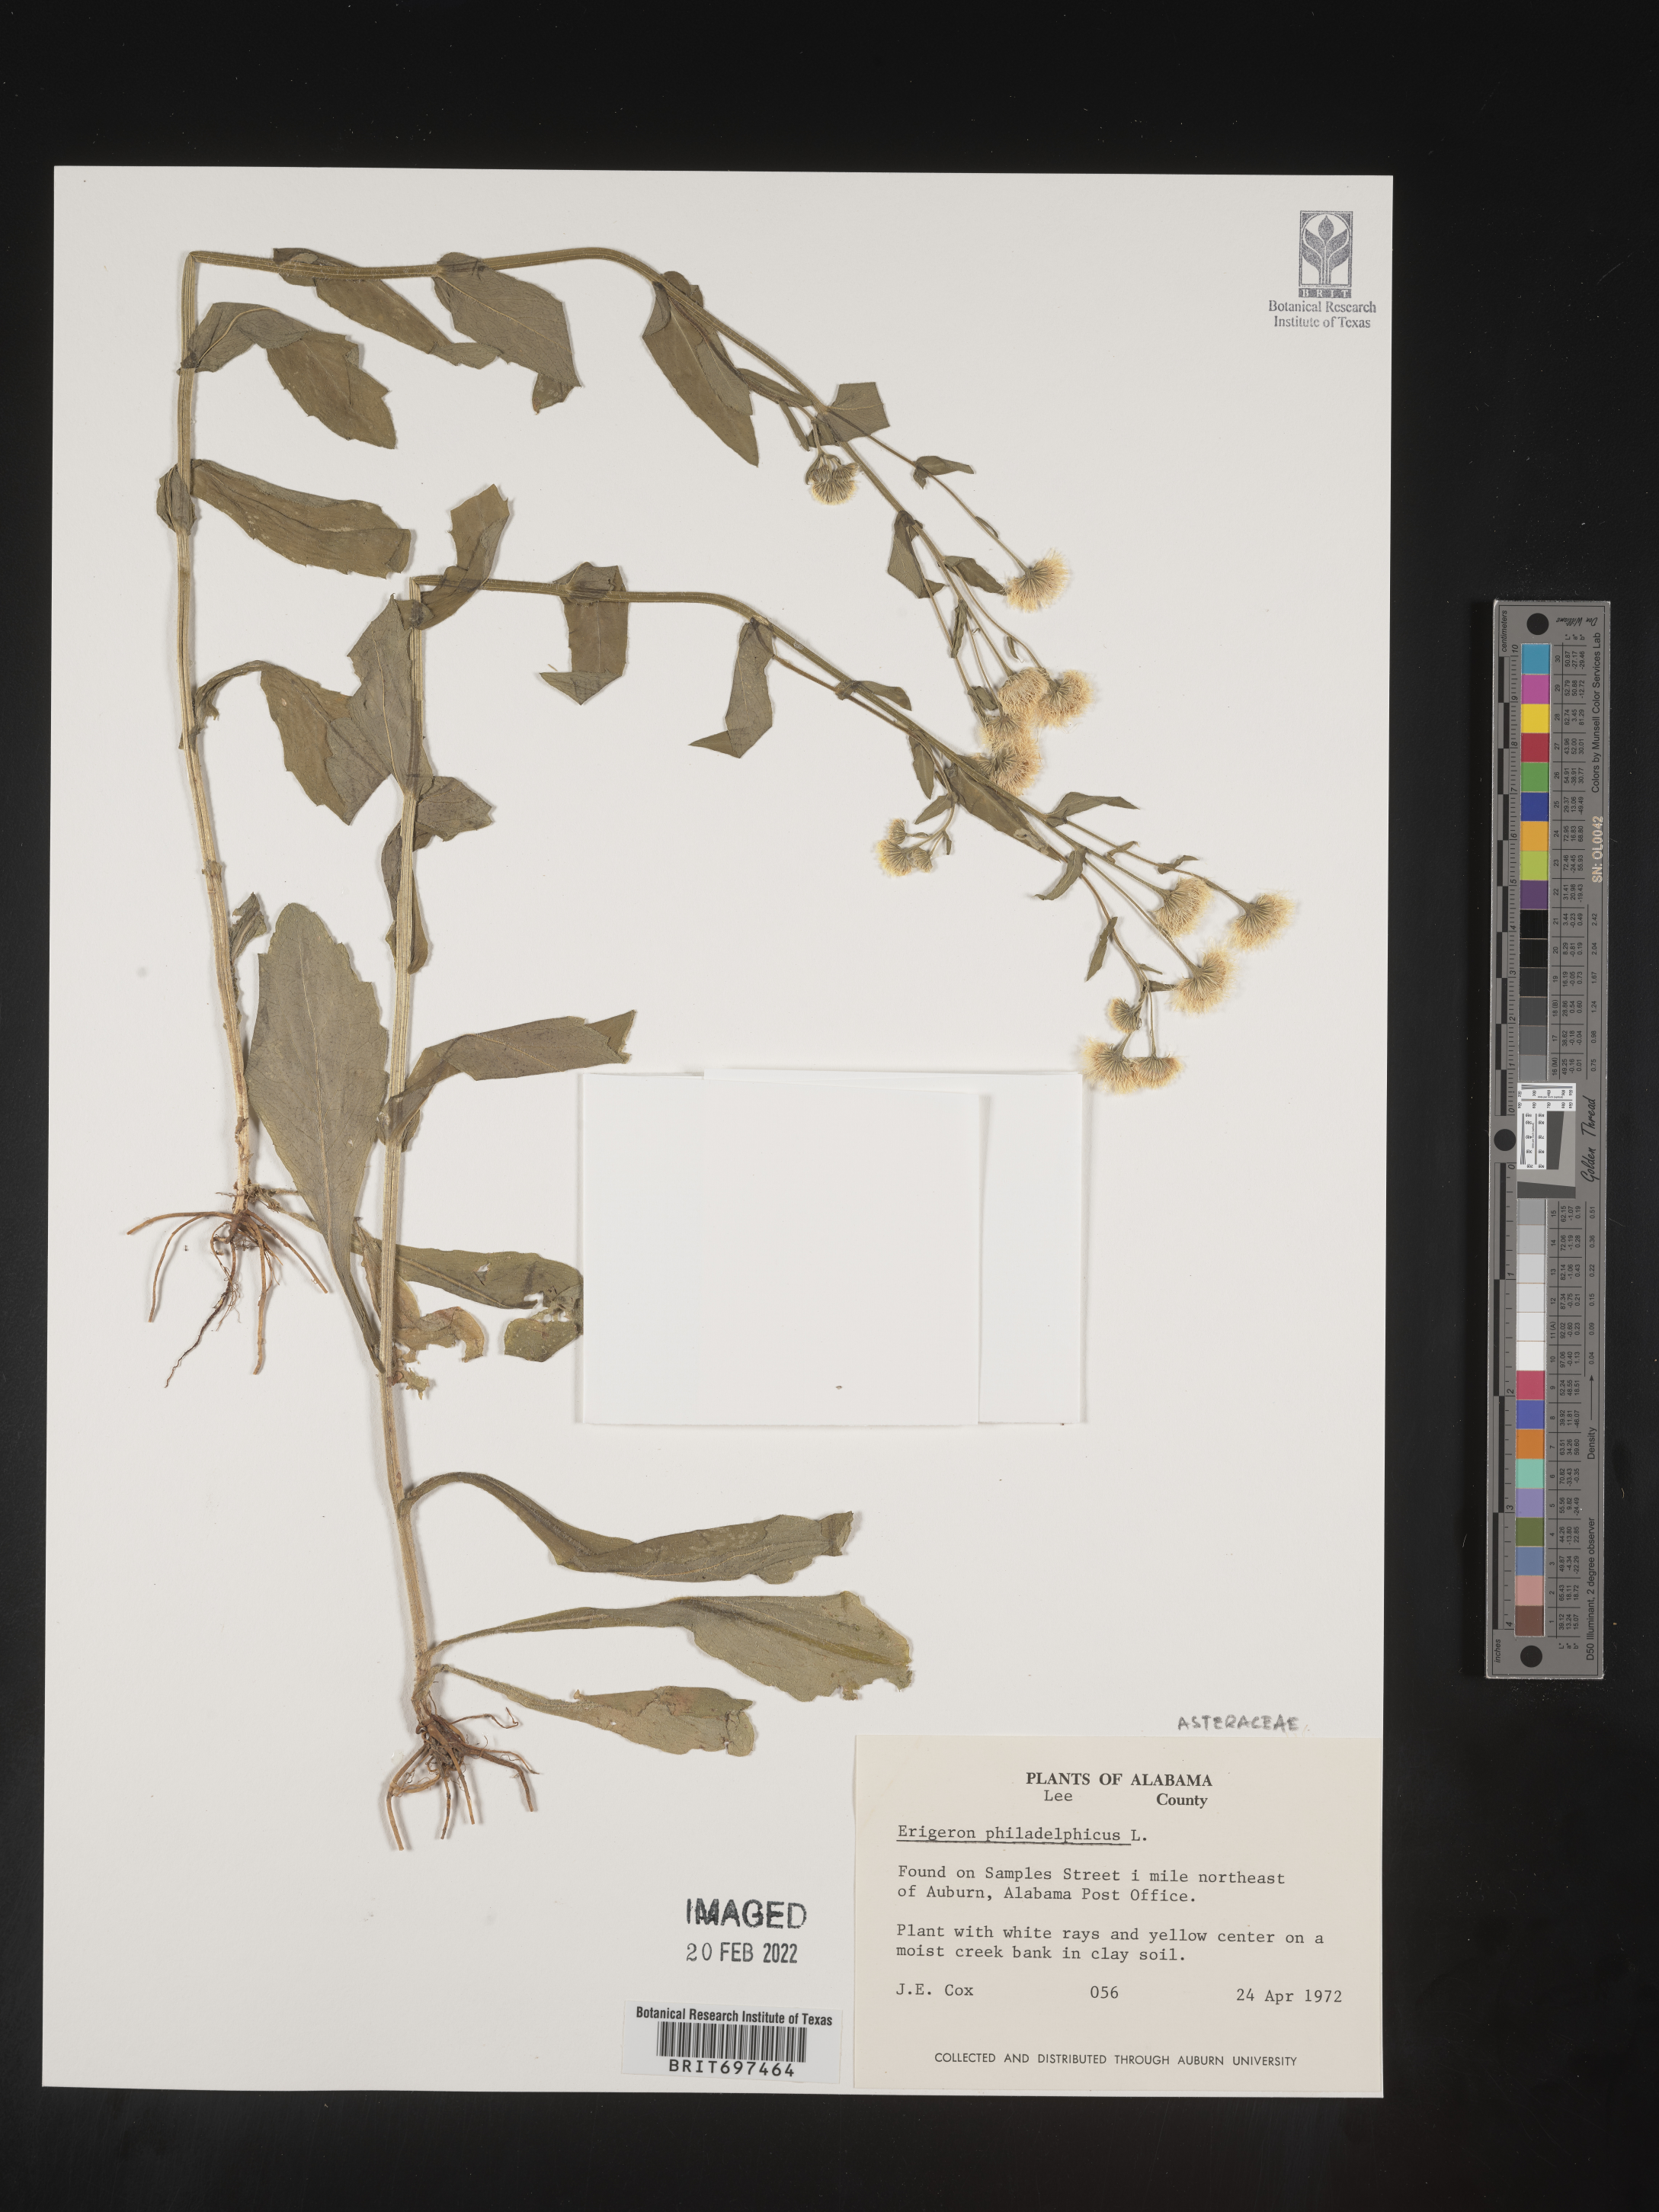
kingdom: Plantae
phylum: Tracheophyta
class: Magnoliopsida
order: Asterales
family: Asteraceae
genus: Erigeron
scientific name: Erigeron philadelphicus
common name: Robin's-plantain
